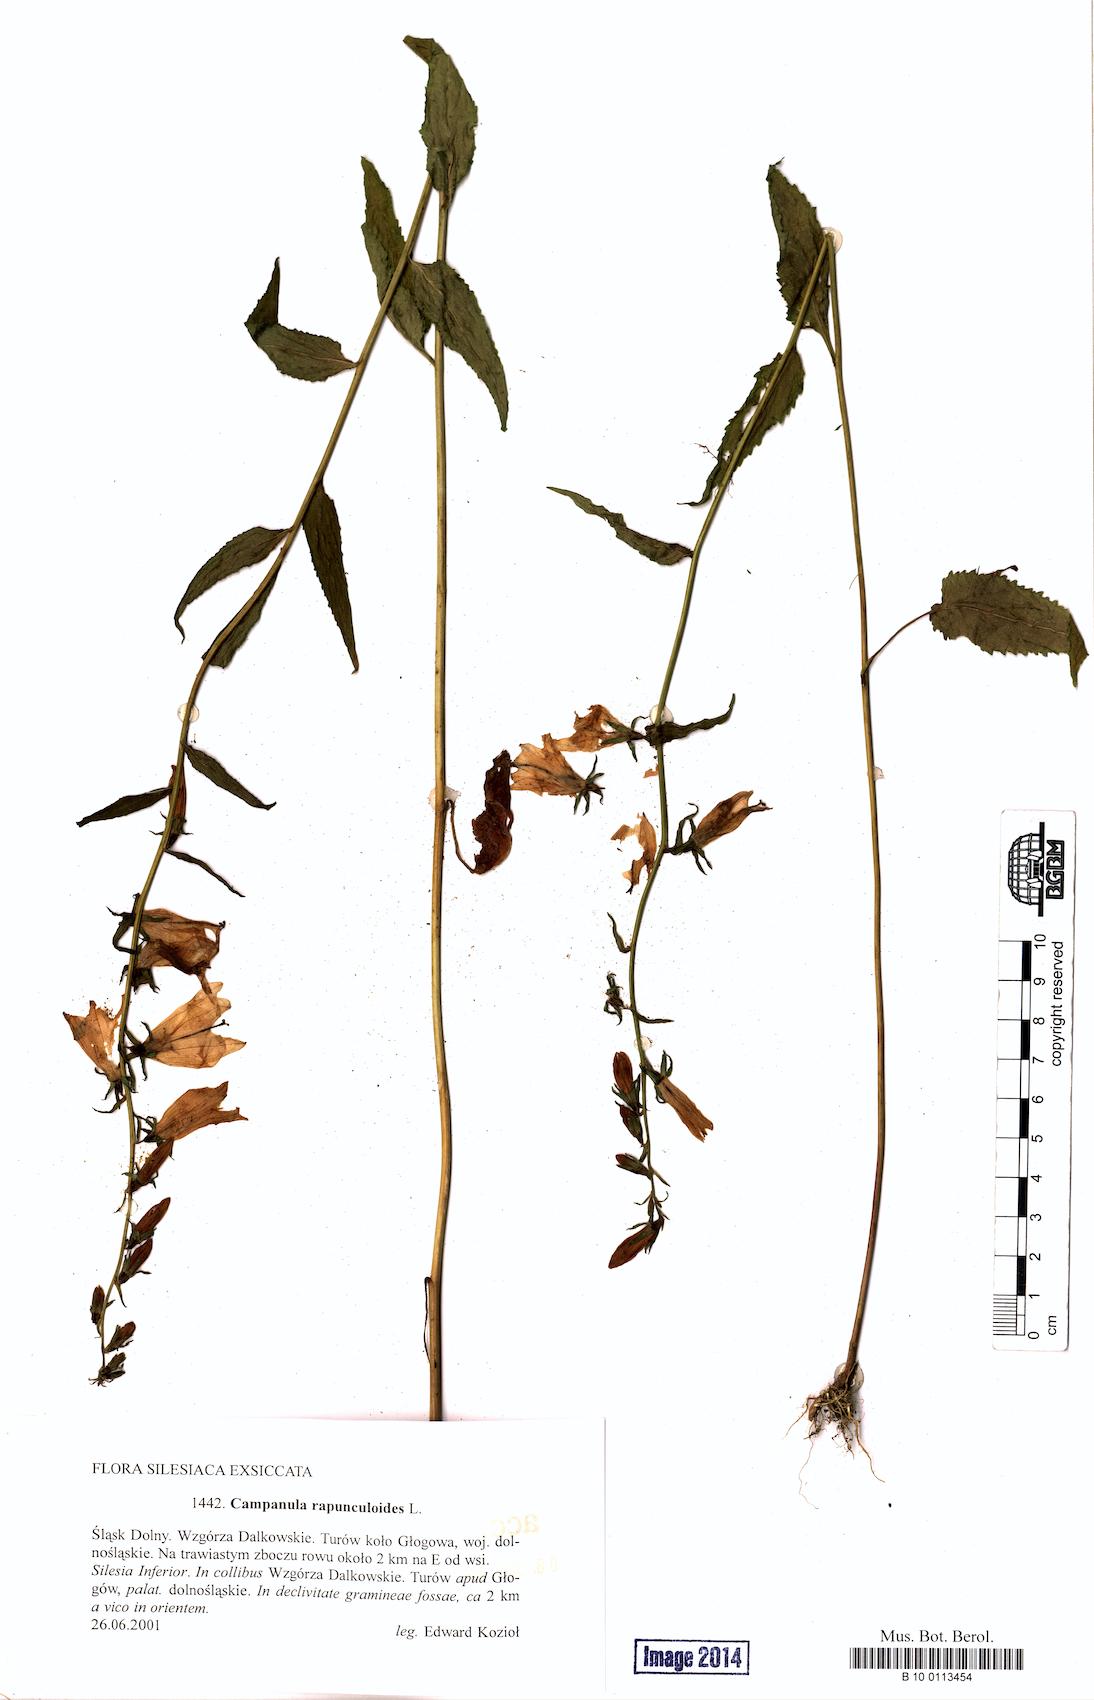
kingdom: Plantae
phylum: Tracheophyta
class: Magnoliopsida
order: Asterales
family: Campanulaceae
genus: Campanula
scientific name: Campanula rapunculoides
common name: Creeping bellflower
